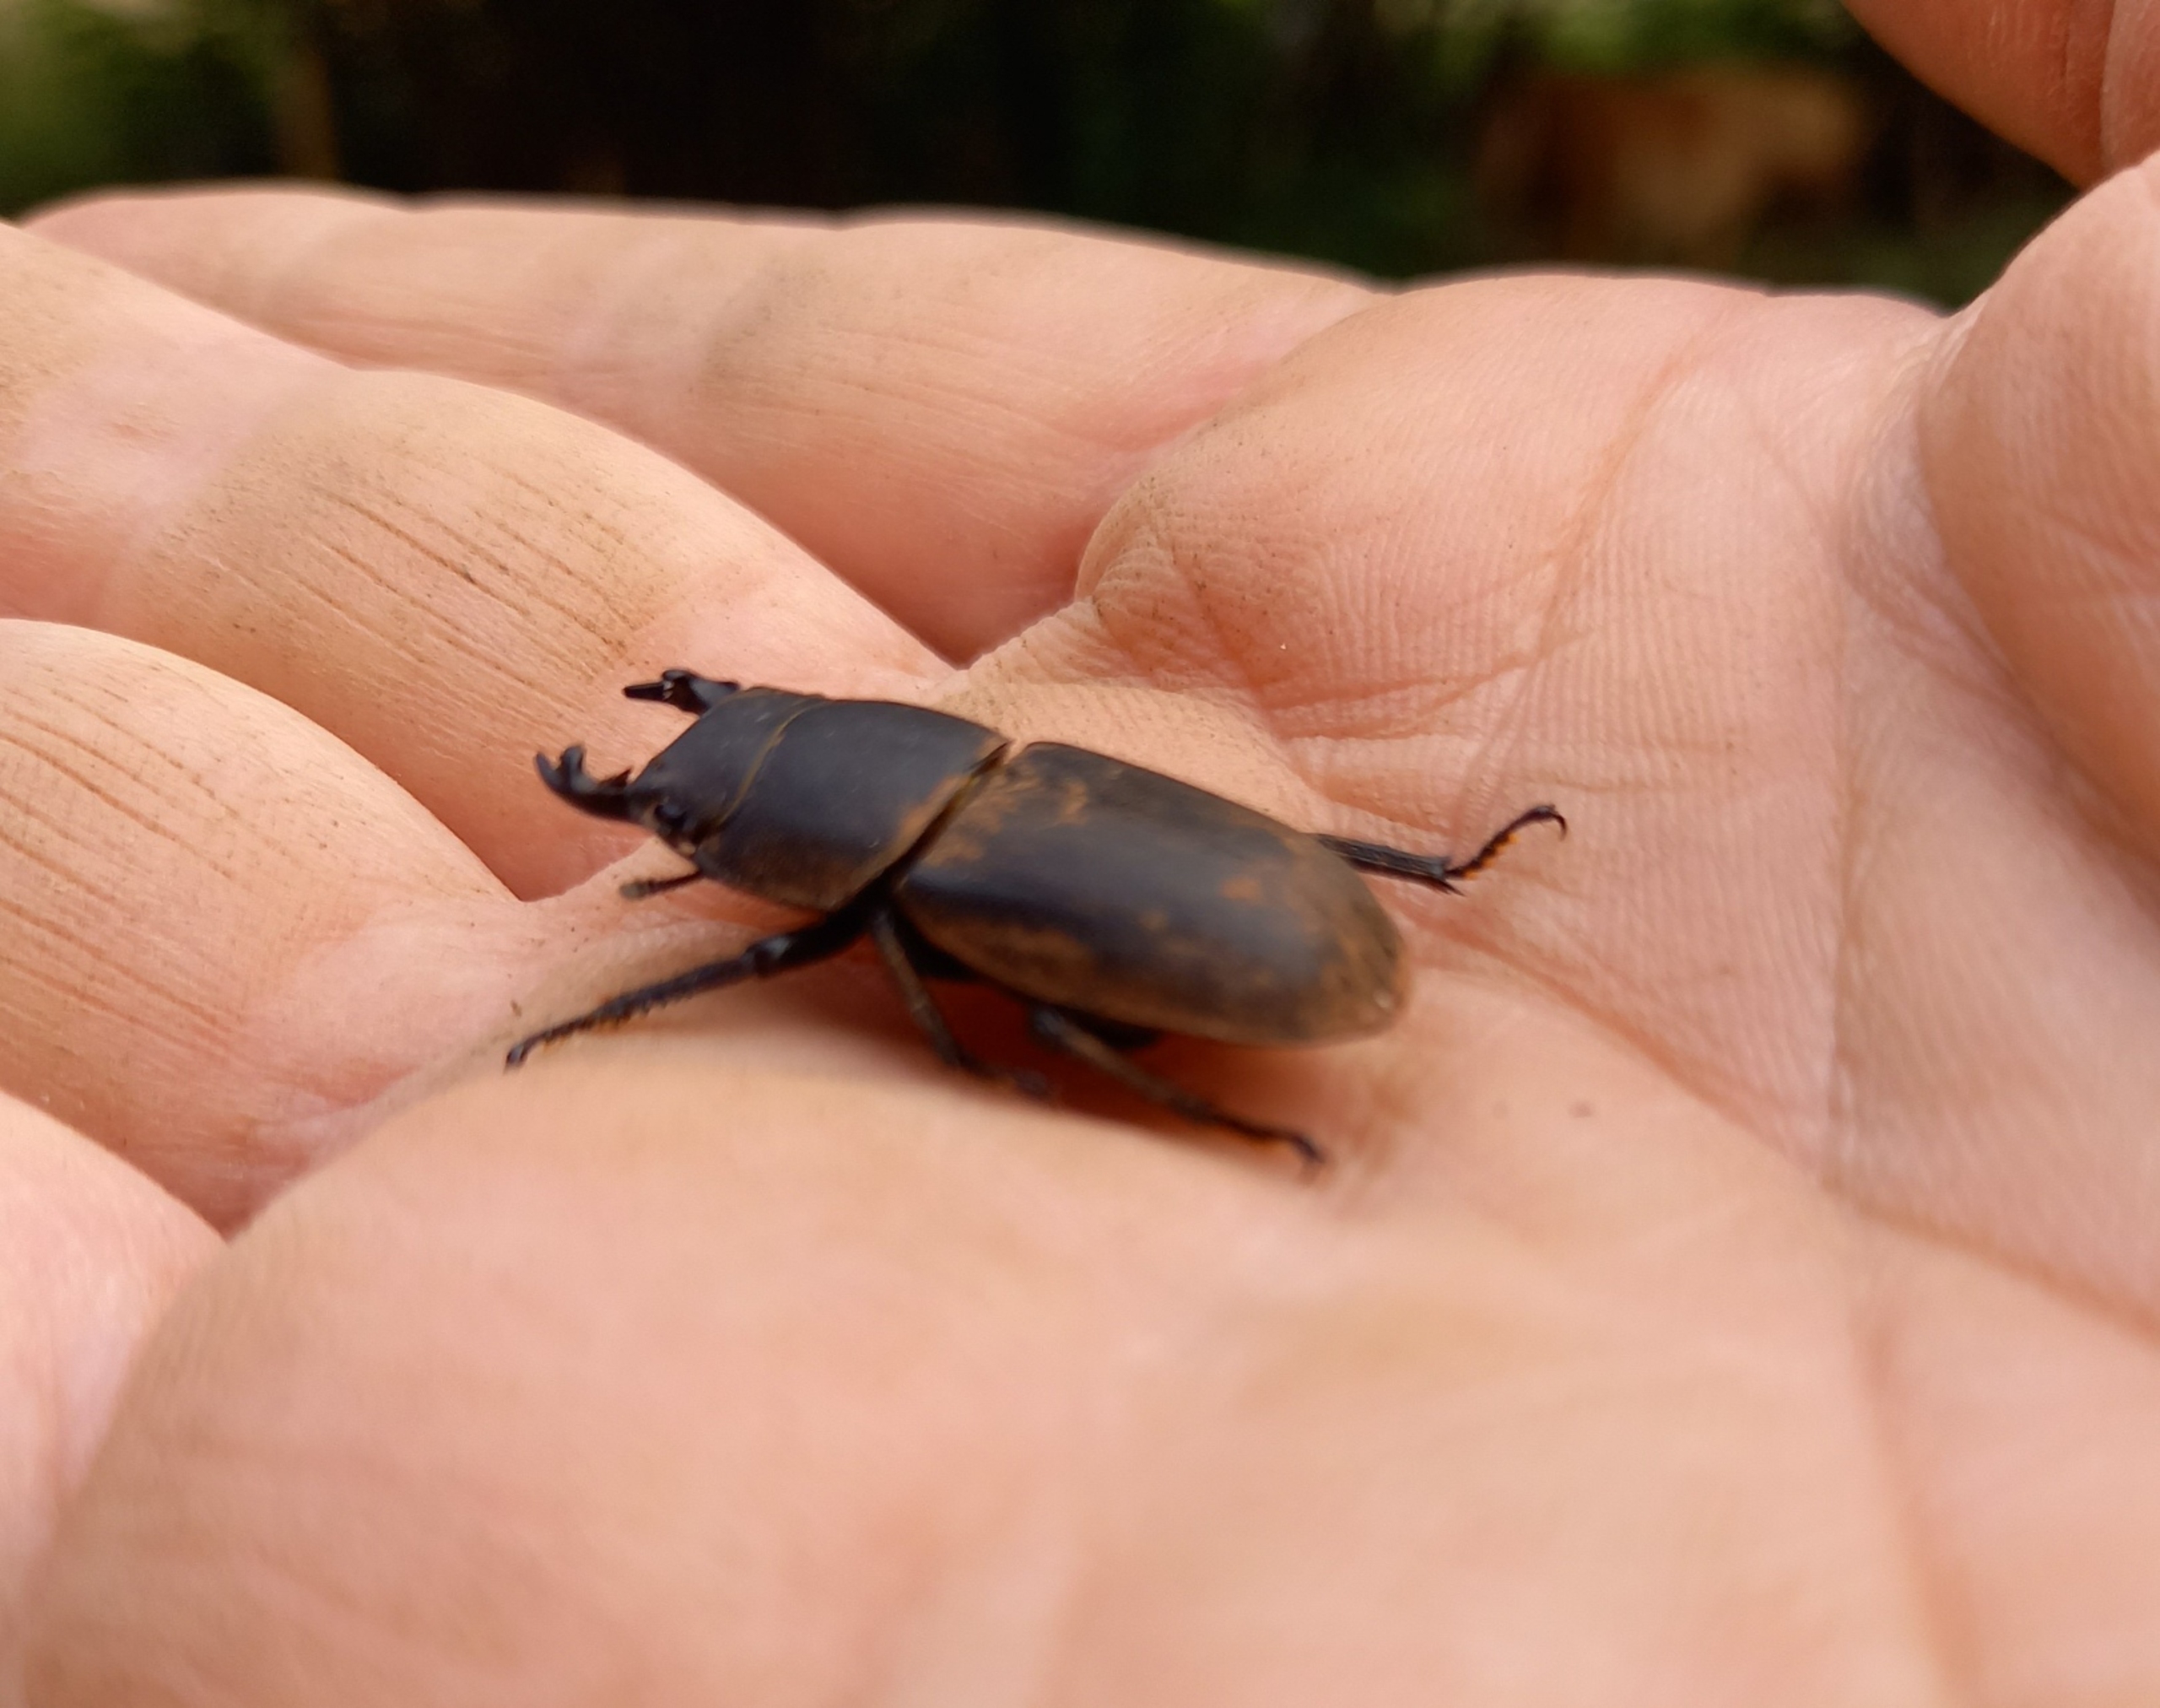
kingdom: Animalia
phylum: Arthropoda
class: Insecta
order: Coleoptera
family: Lucanidae
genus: Dorcus
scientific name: Dorcus parallelipipedus
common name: Bøghjort
